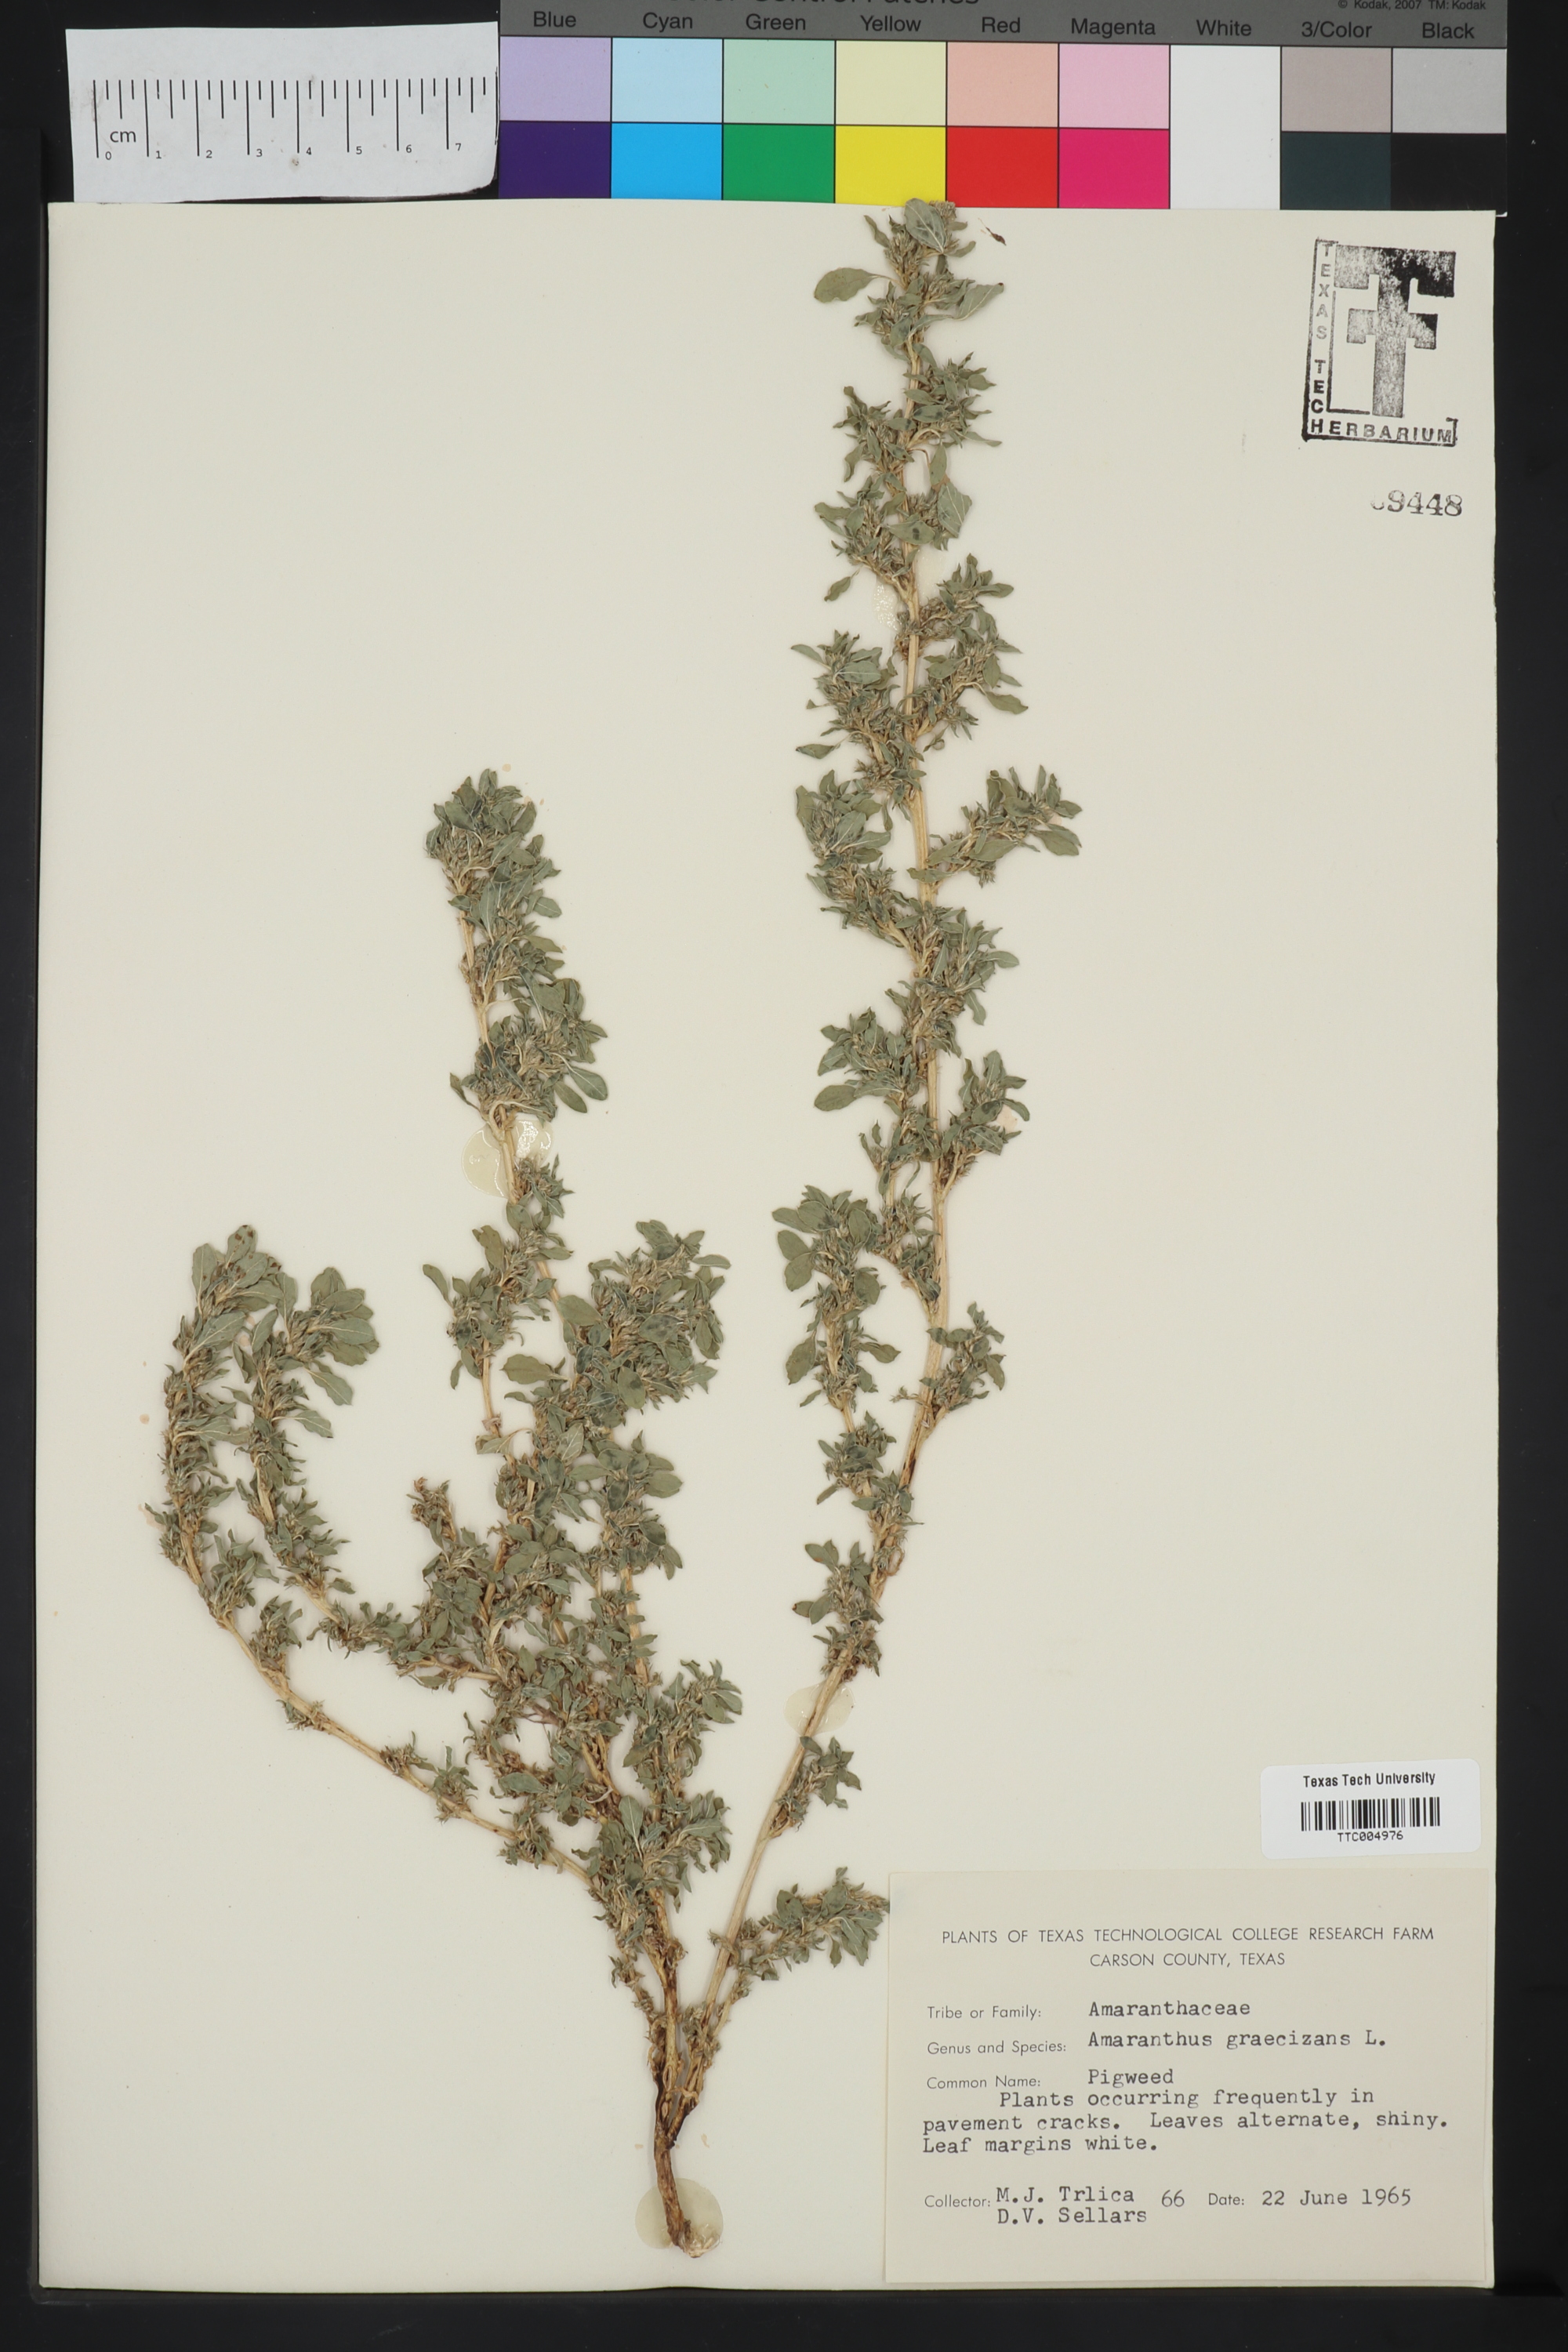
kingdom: Plantae
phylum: Tracheophyta
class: Magnoliopsida
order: Caryophyllales
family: Amaranthaceae
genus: Amaranthus
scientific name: Amaranthus graecizans
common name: Mediterranean amaranth
